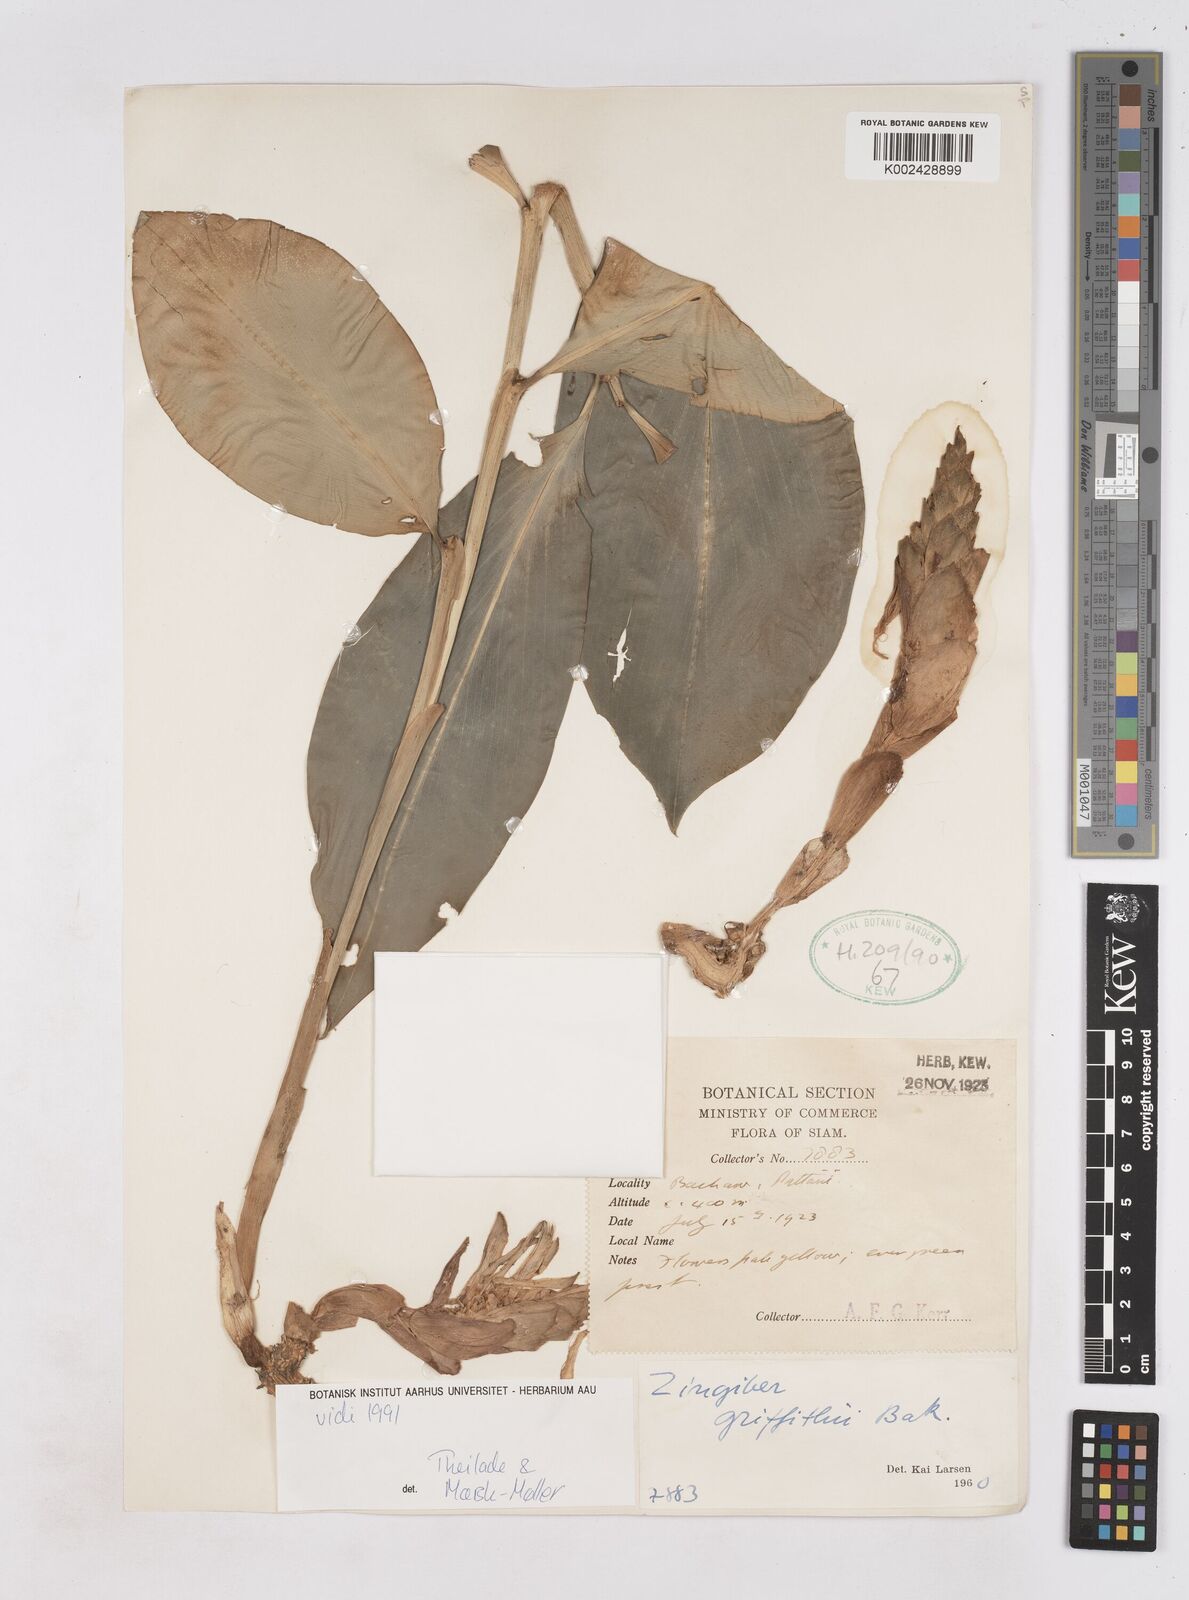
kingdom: Plantae
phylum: Tracheophyta
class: Liliopsida
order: Zingiberales
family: Zingiberaceae
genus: Zingiber
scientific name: Zingiber griffithii
